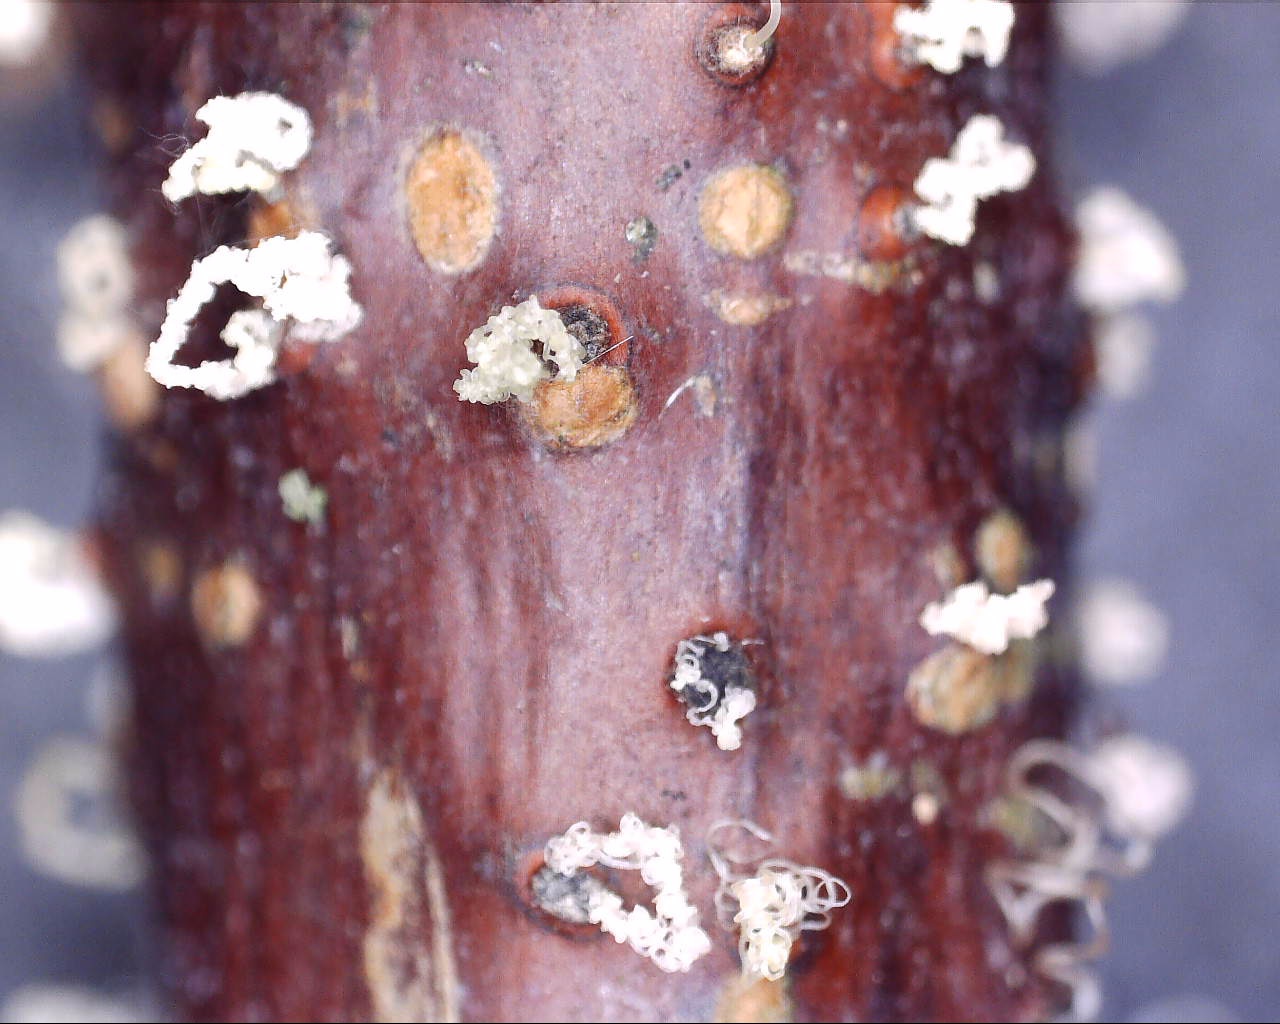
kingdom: Fungi
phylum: Ascomycota
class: Sordariomycetes
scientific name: Sordariomycetes
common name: kernesvampklassen
